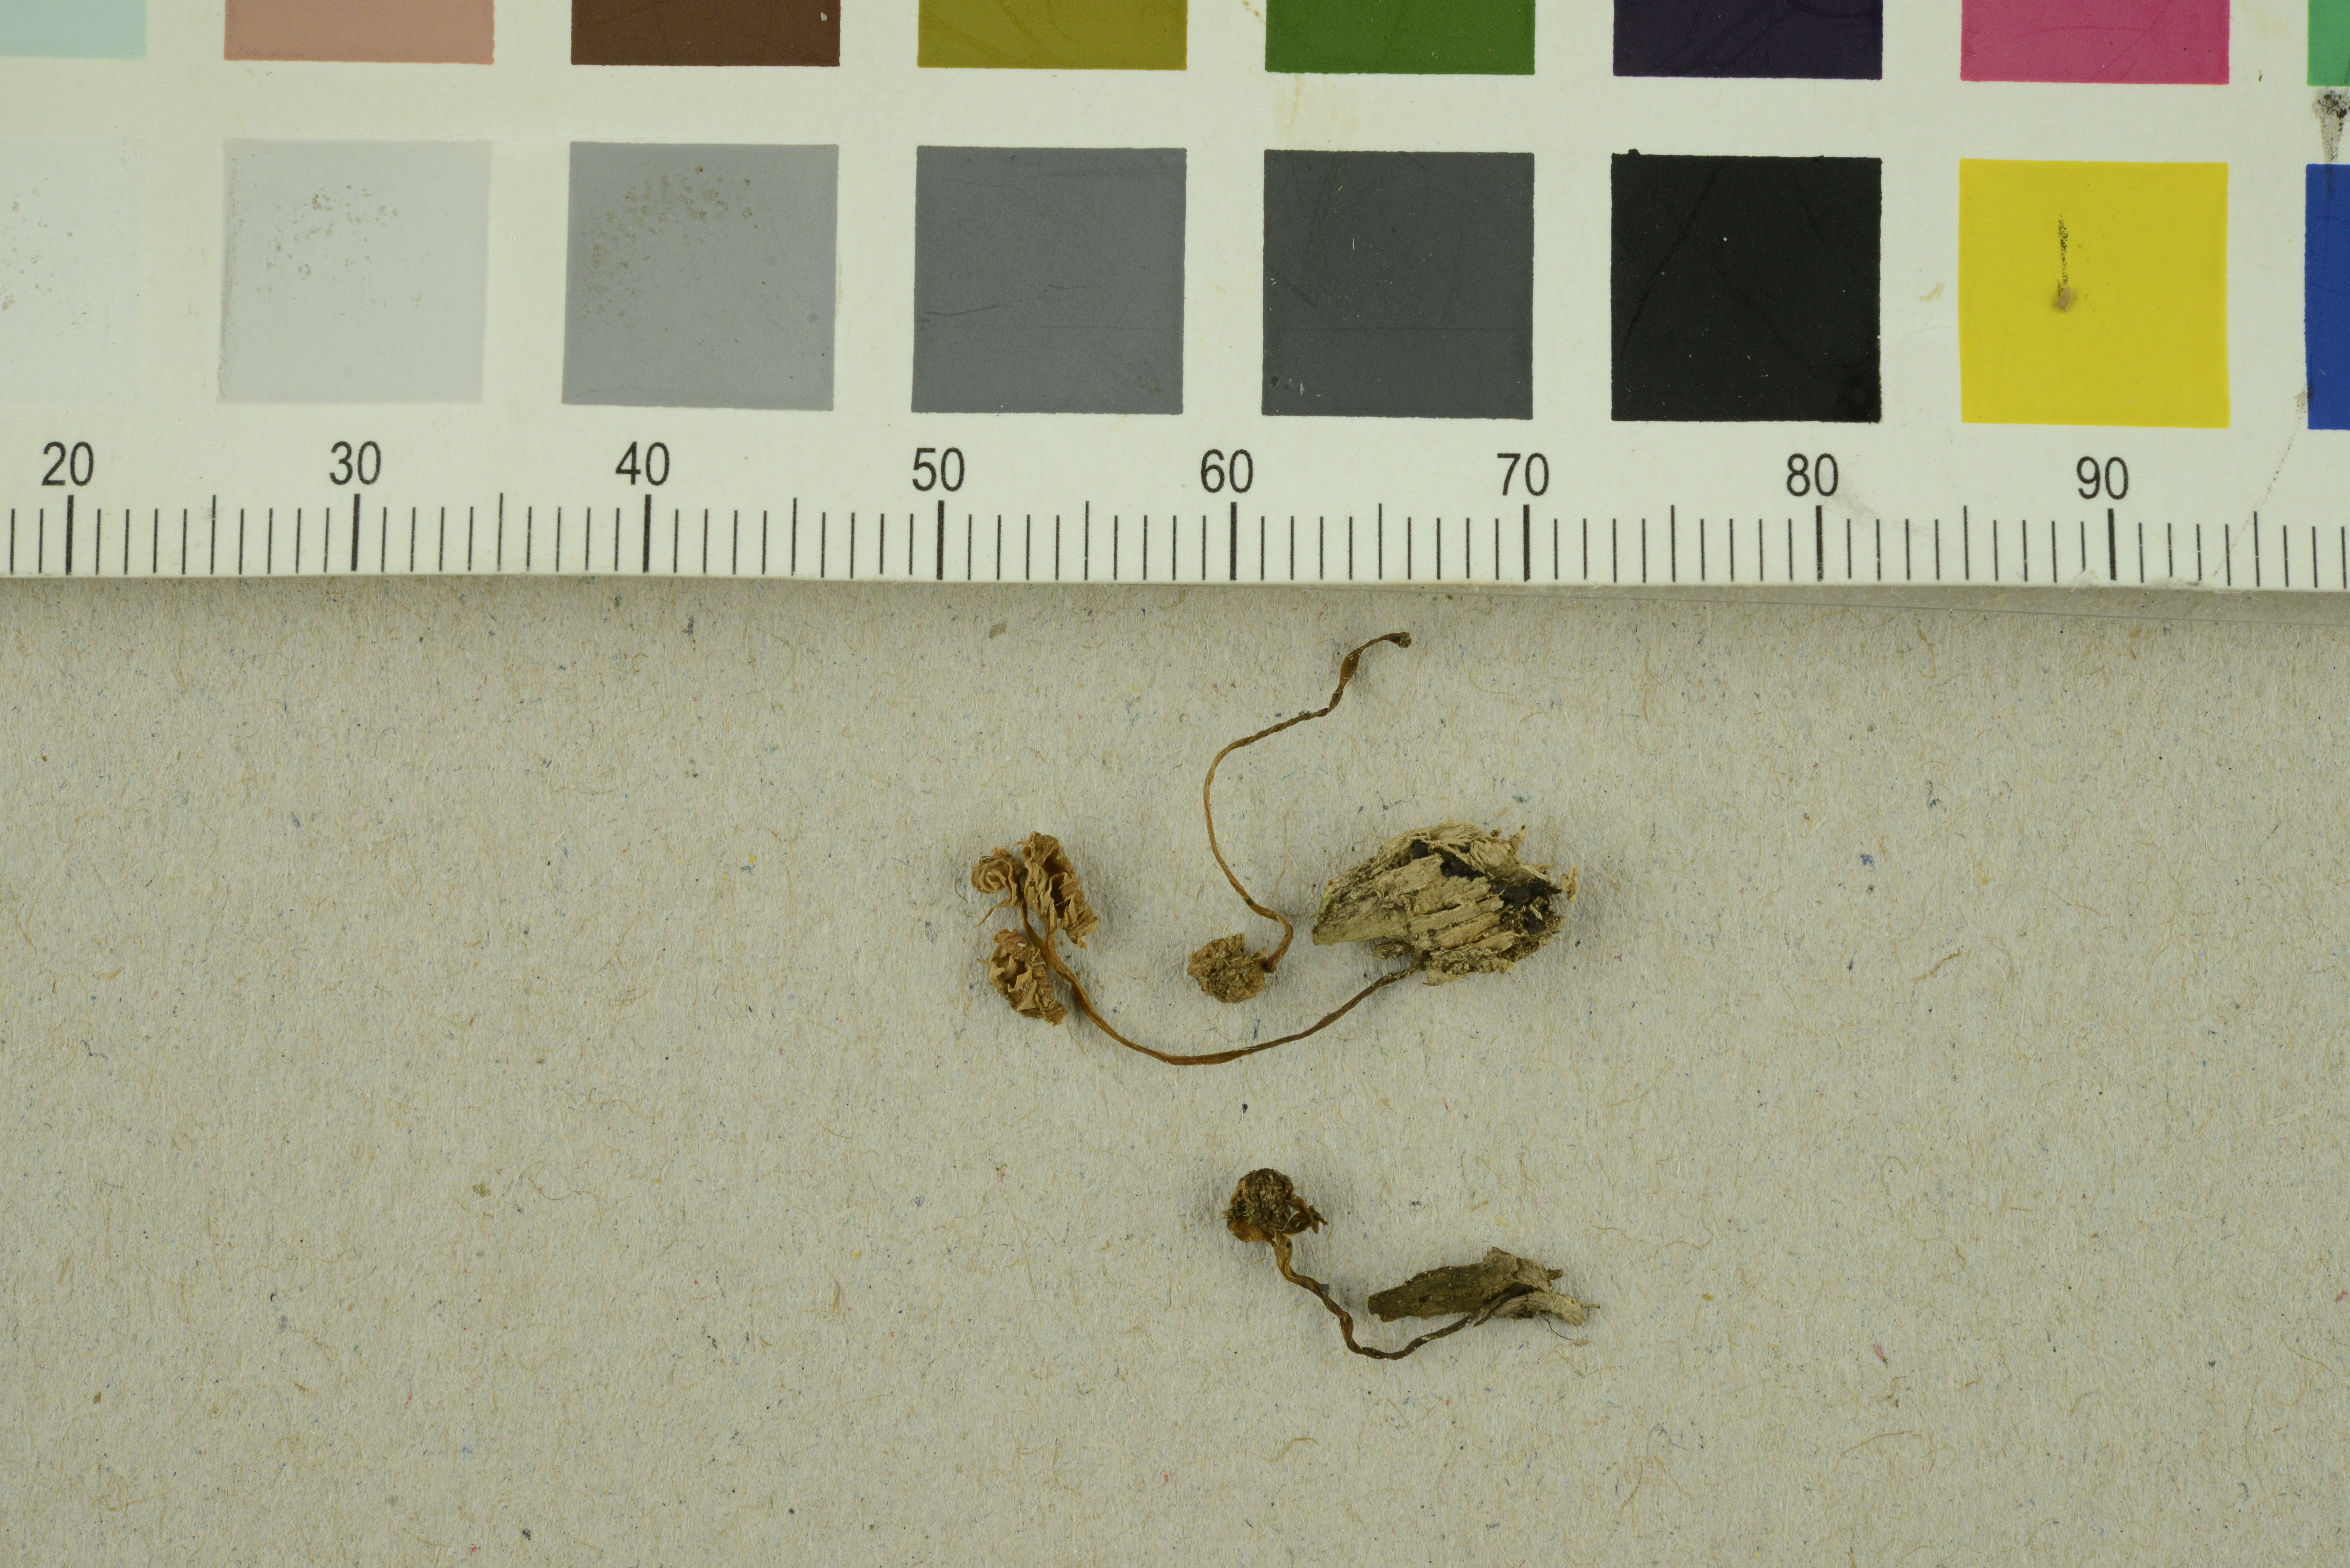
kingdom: Fungi
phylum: Basidiomycota
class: Agaricomycetes
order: Agaricales
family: Entolomataceae
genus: Entoloma
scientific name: Entoloma rhodocylix
